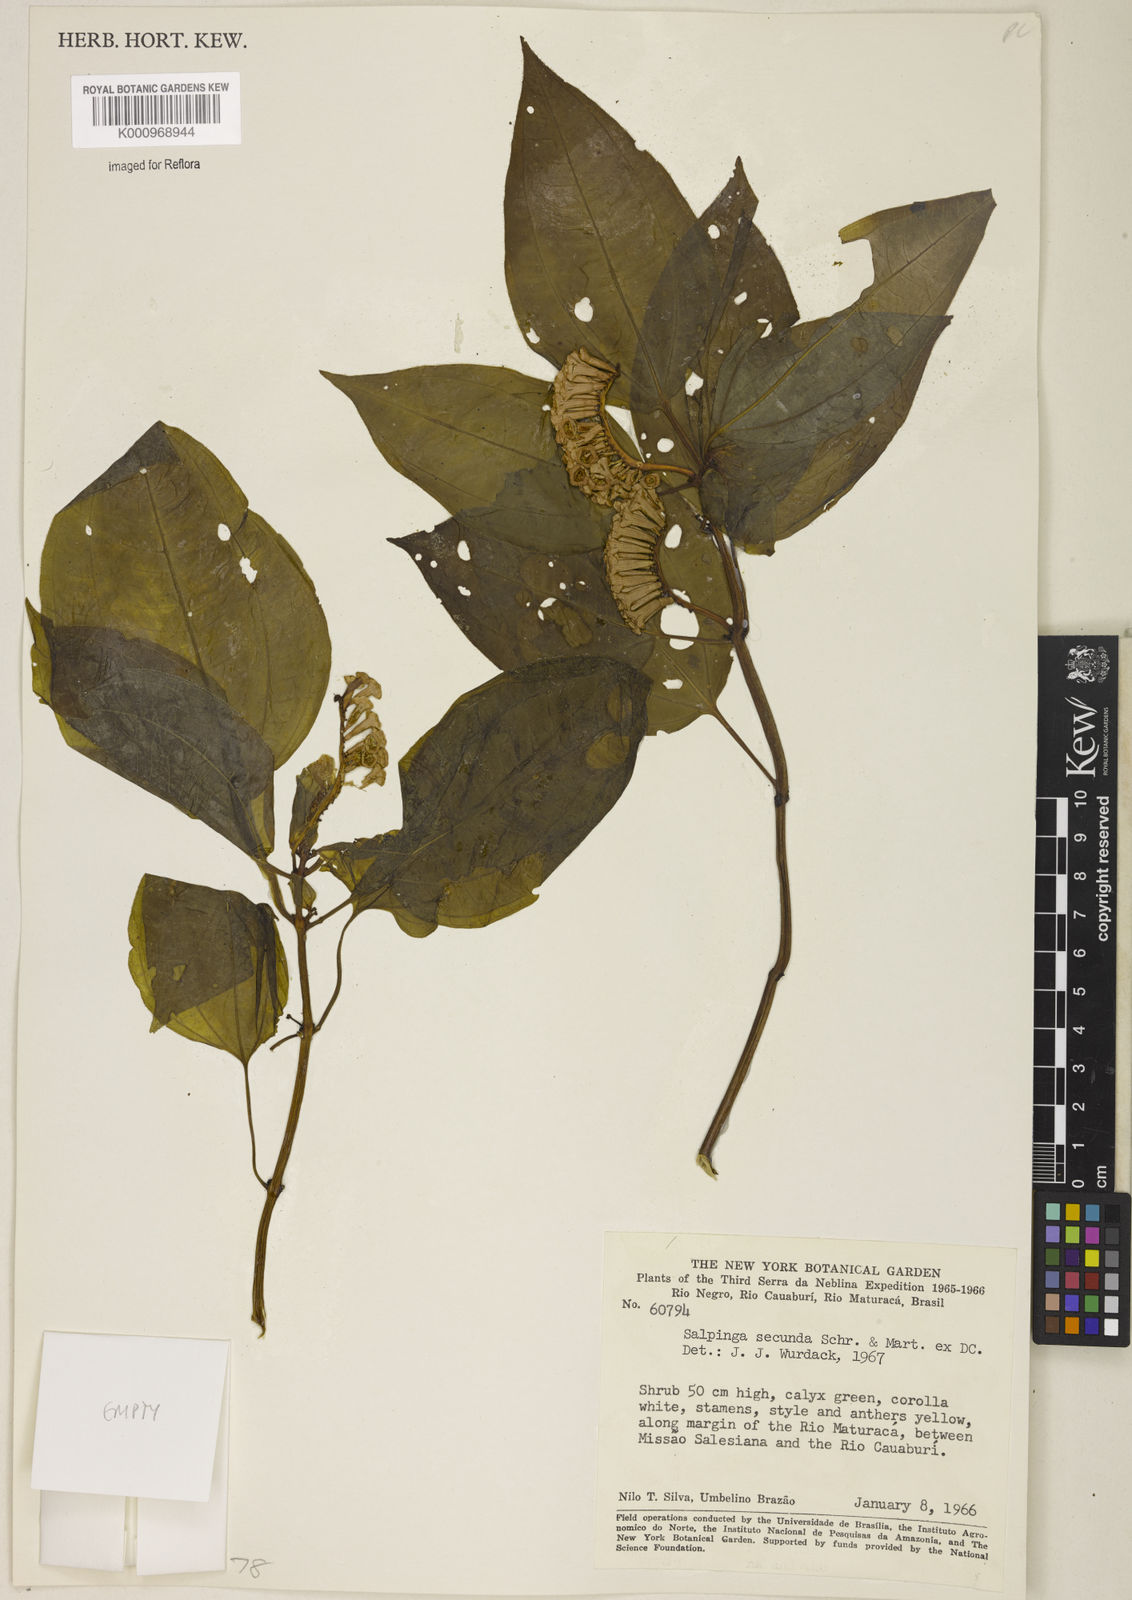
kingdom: Plantae
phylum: Tracheophyta
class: Magnoliopsida
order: Myrtales
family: Melastomataceae
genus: Salpinga
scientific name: Salpinga secunda
